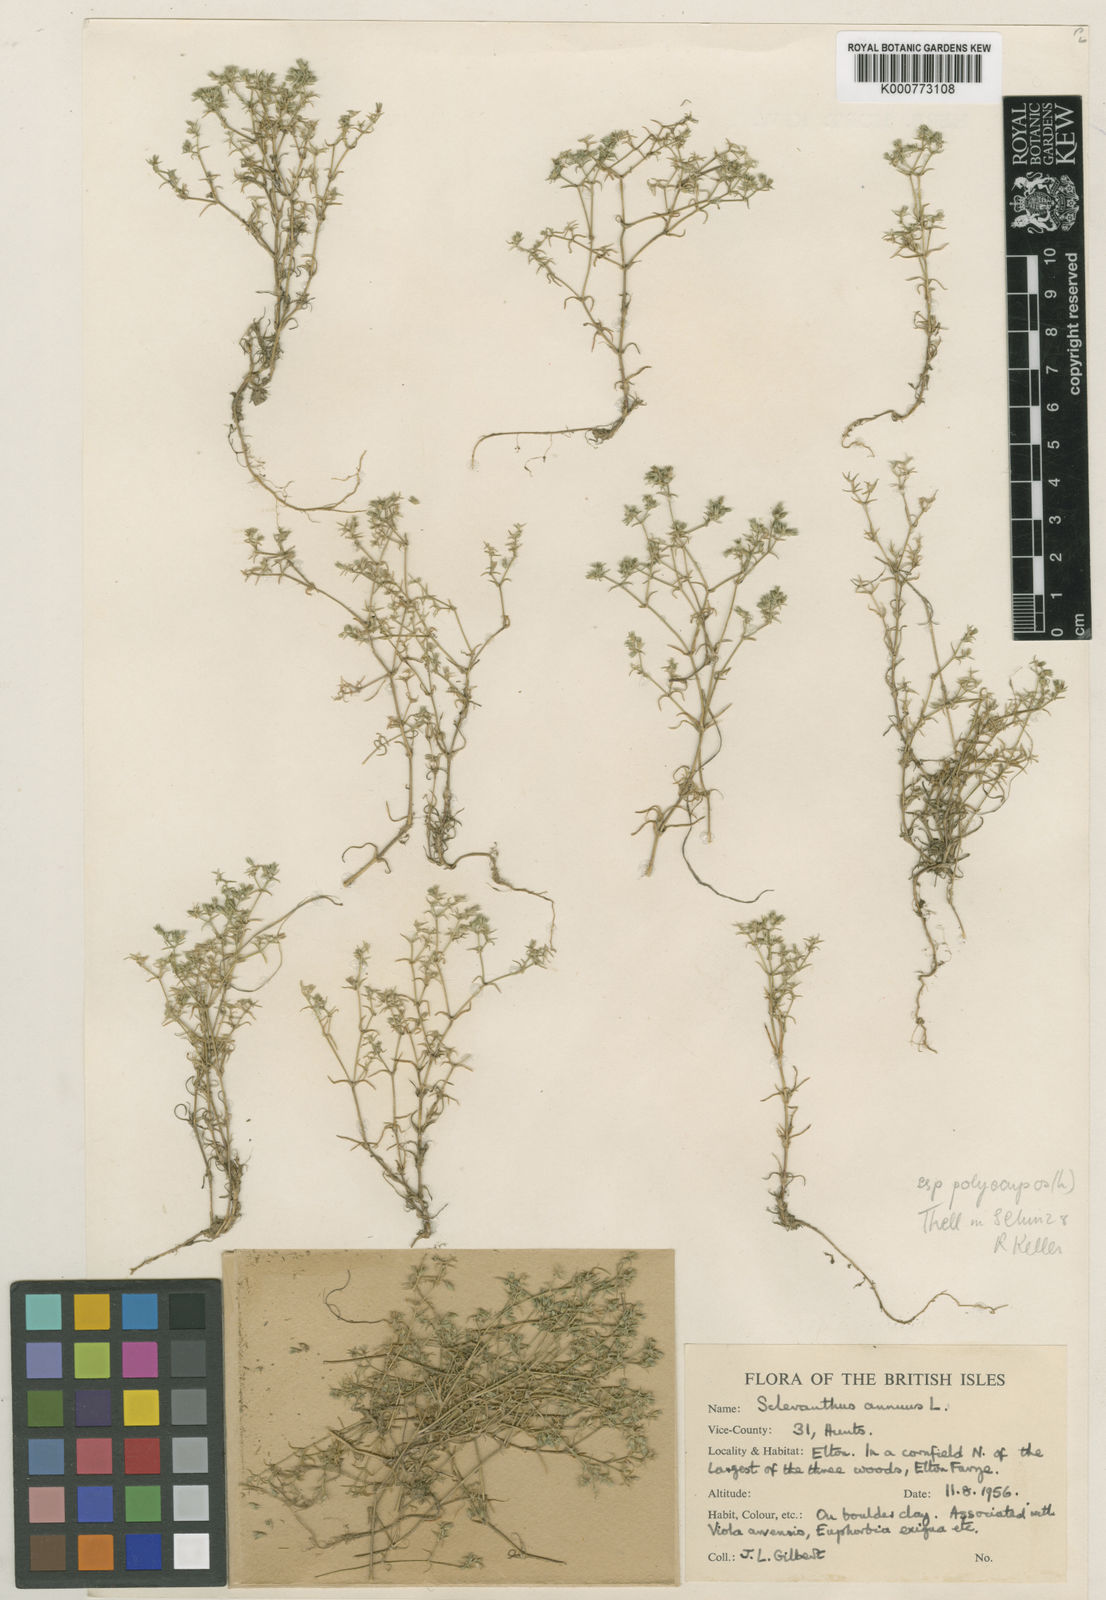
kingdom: Plantae
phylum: Tracheophyta
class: Magnoliopsida
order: Caryophyllales
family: Caryophyllaceae
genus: Scleranthus
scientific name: Scleranthus annuus
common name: Annual knawel
